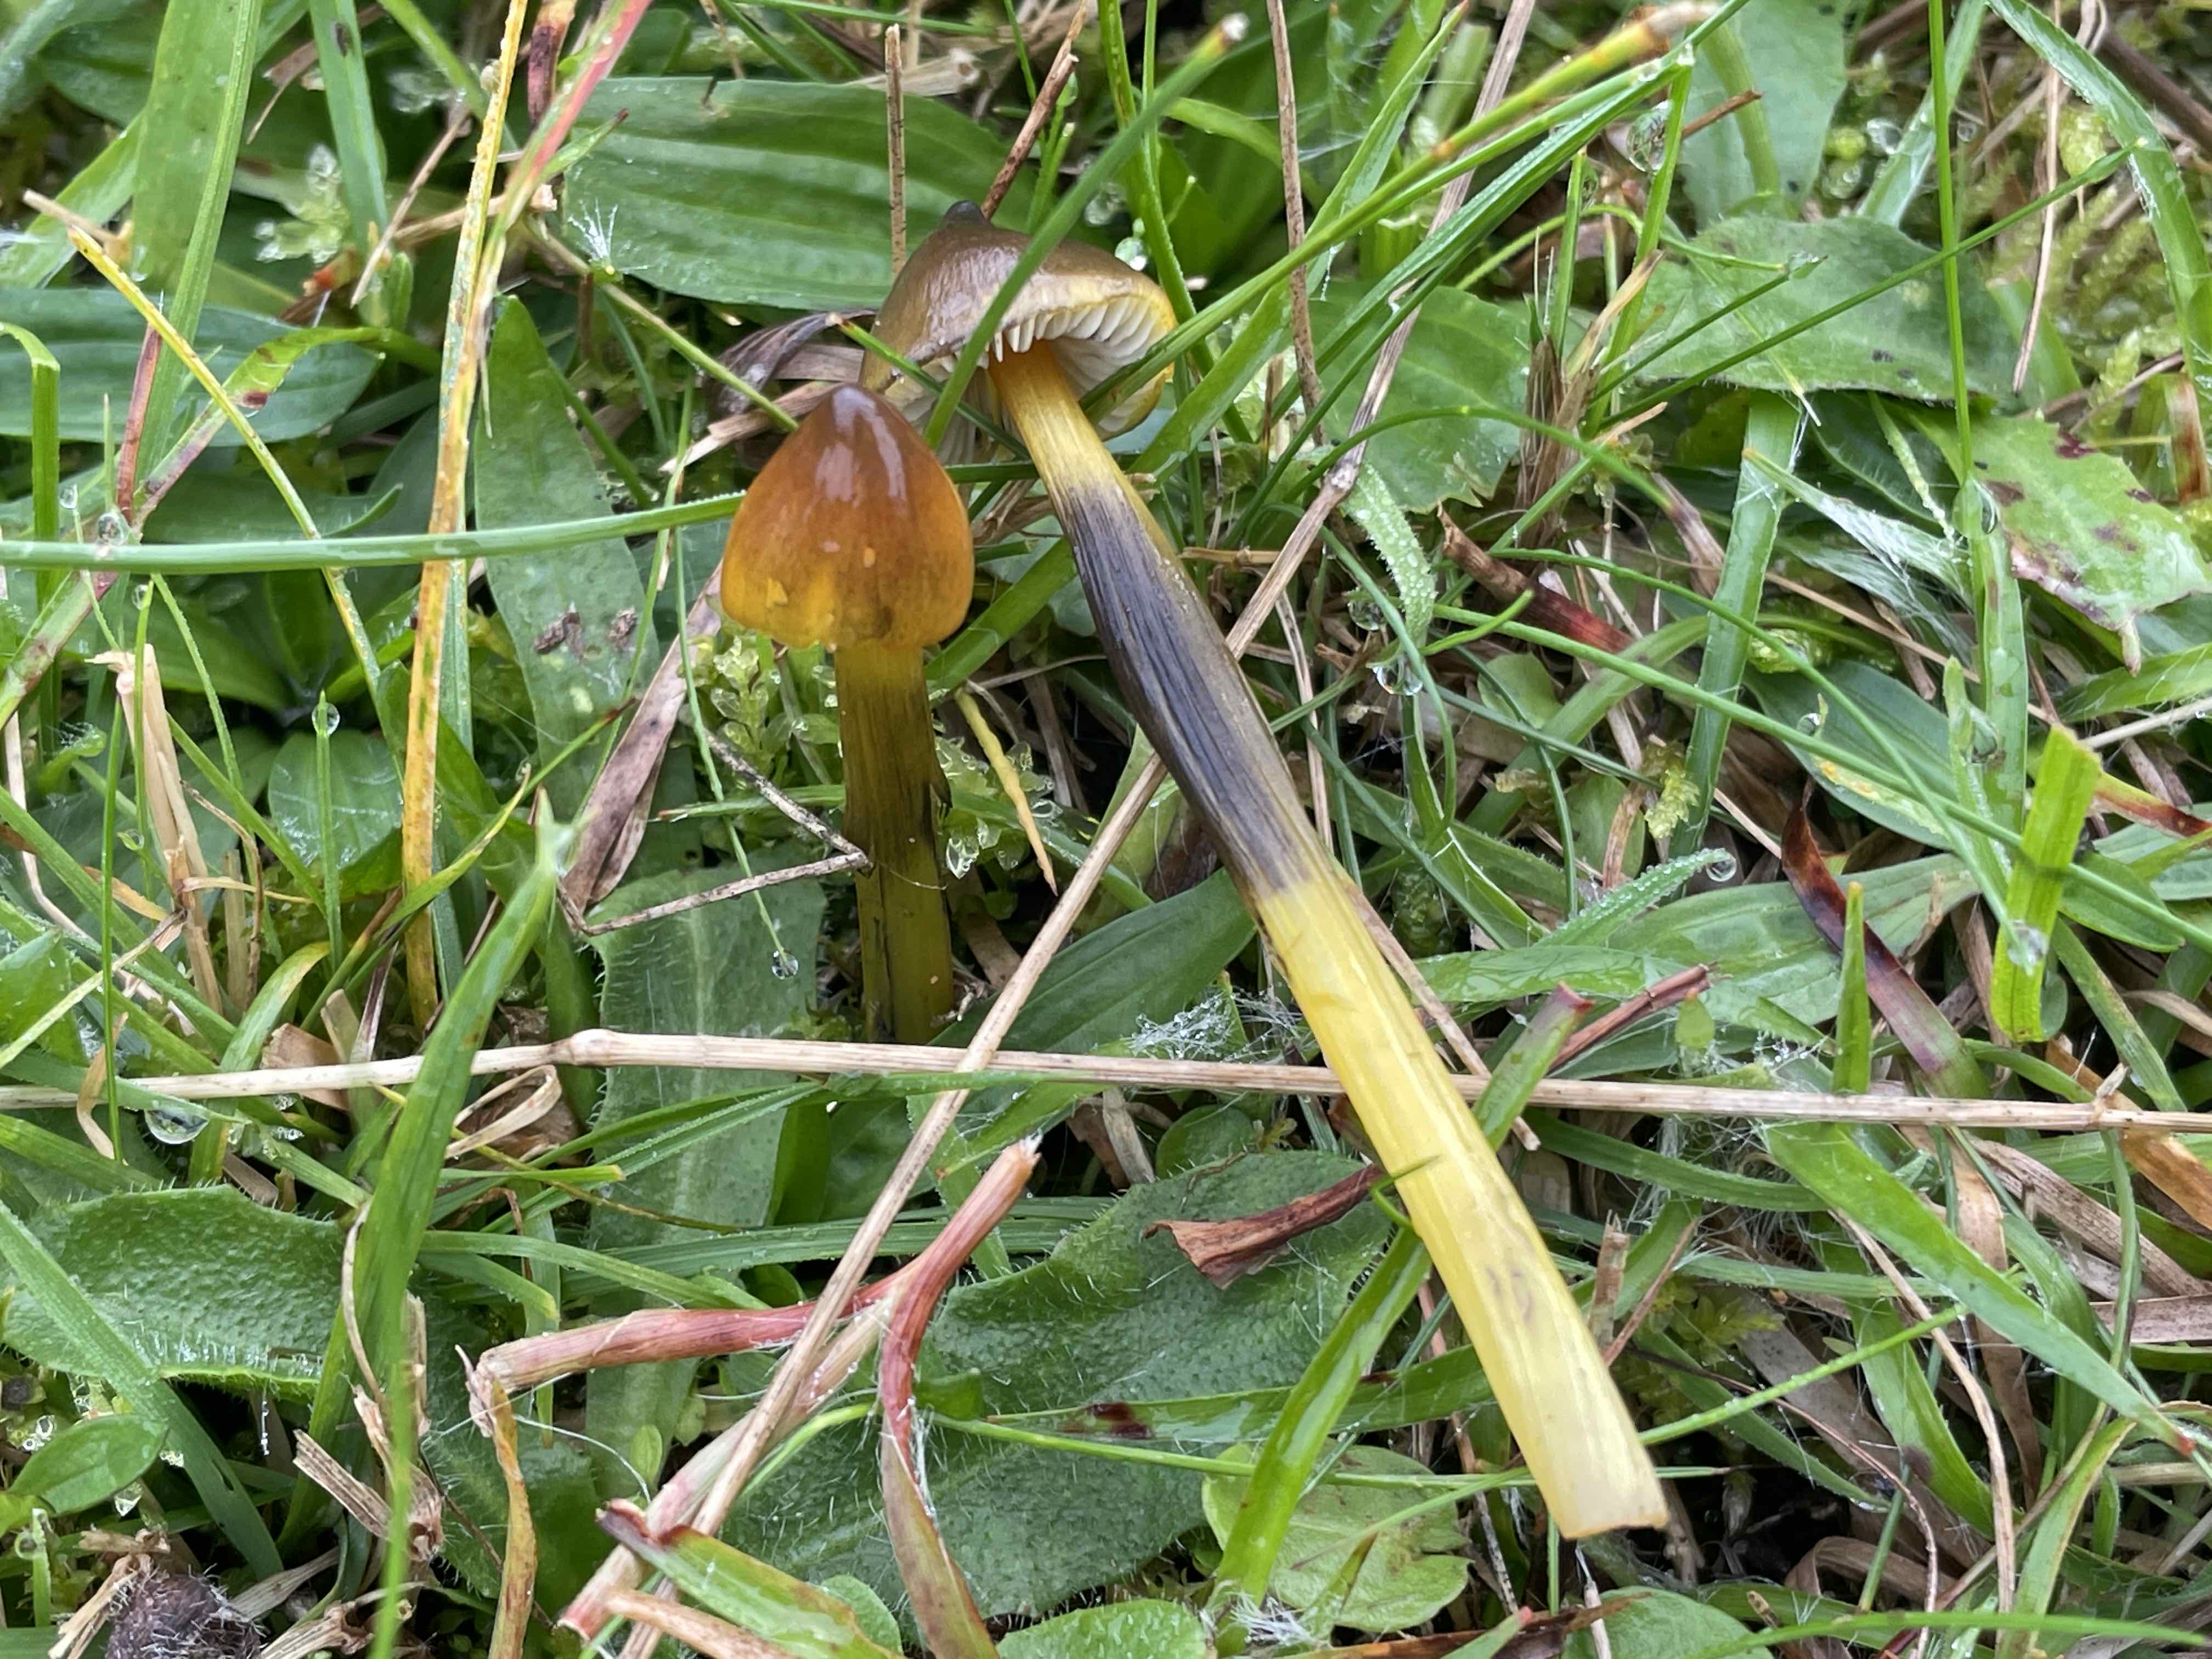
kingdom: Fungi
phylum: Basidiomycota
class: Agaricomycetes
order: Agaricales
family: Hygrophoraceae
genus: Hygrocybe
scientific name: Hygrocybe conica
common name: kegle-vokshat
